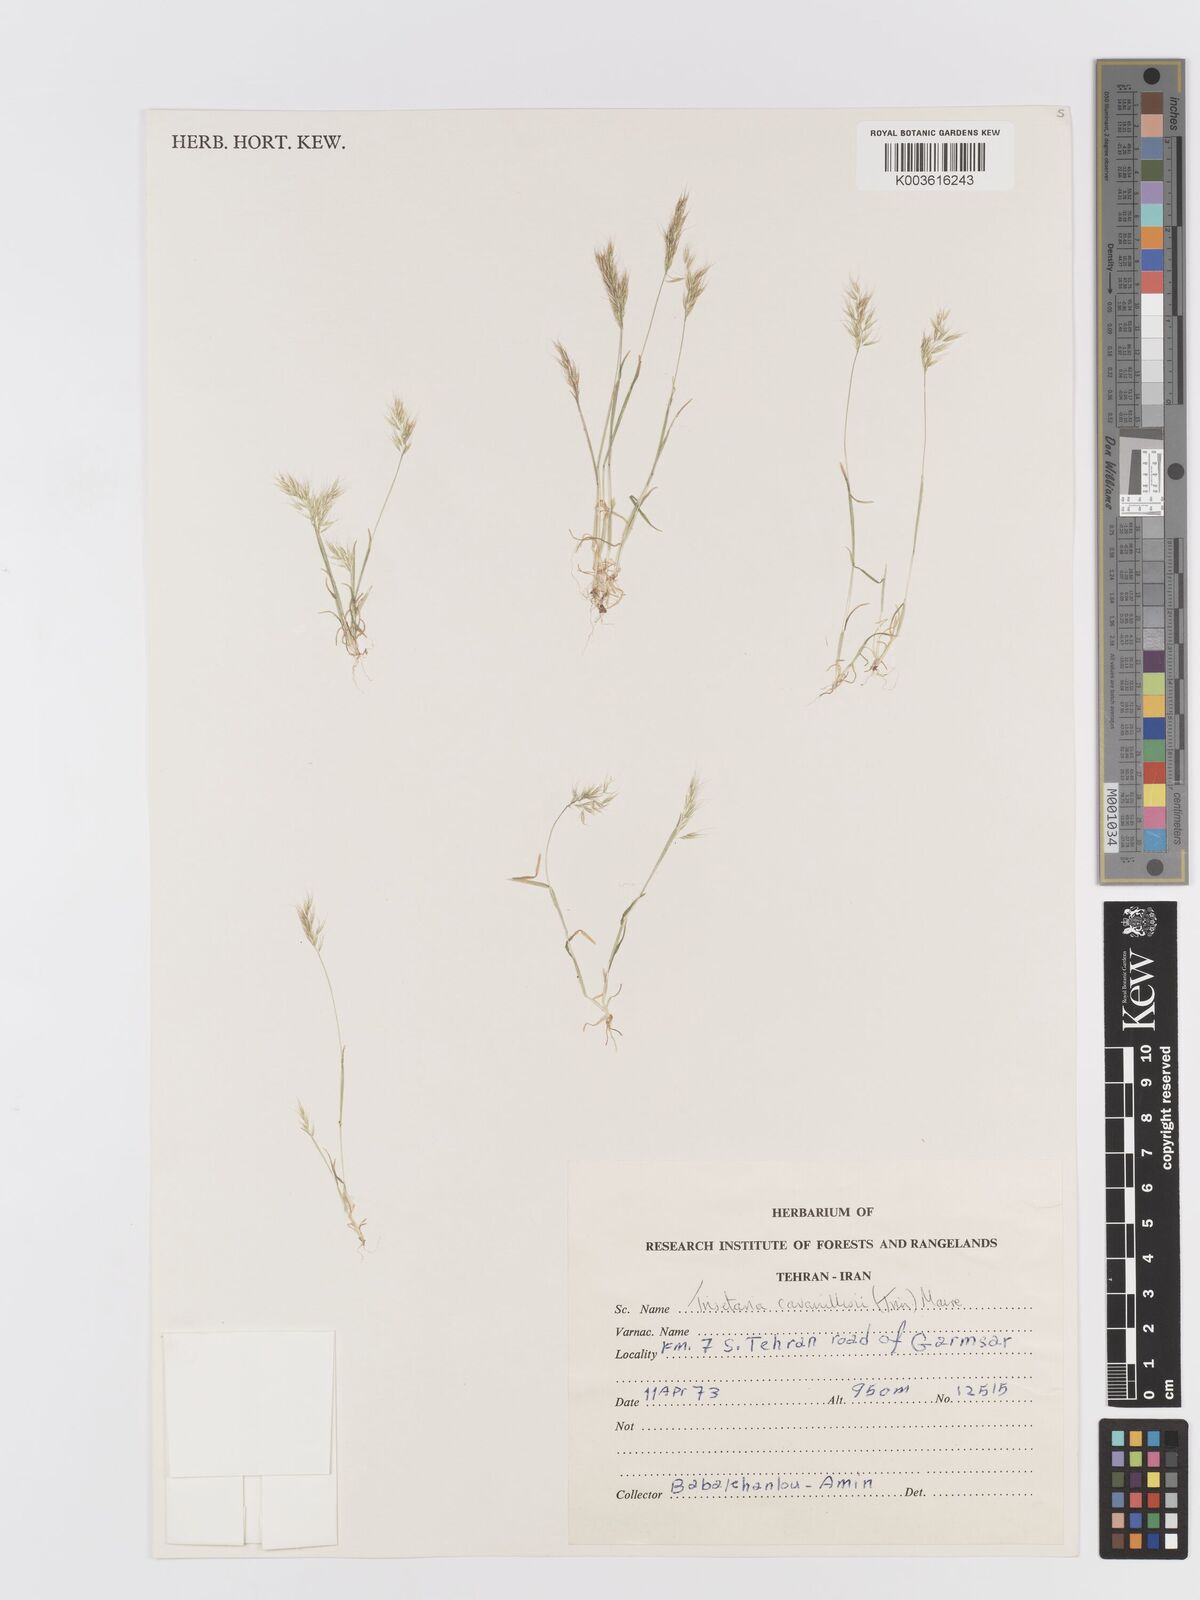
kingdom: Plantae
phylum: Tracheophyta
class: Liliopsida
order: Poales
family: Poaceae
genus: Trisetaria
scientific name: Trisetaria loeflingiana
